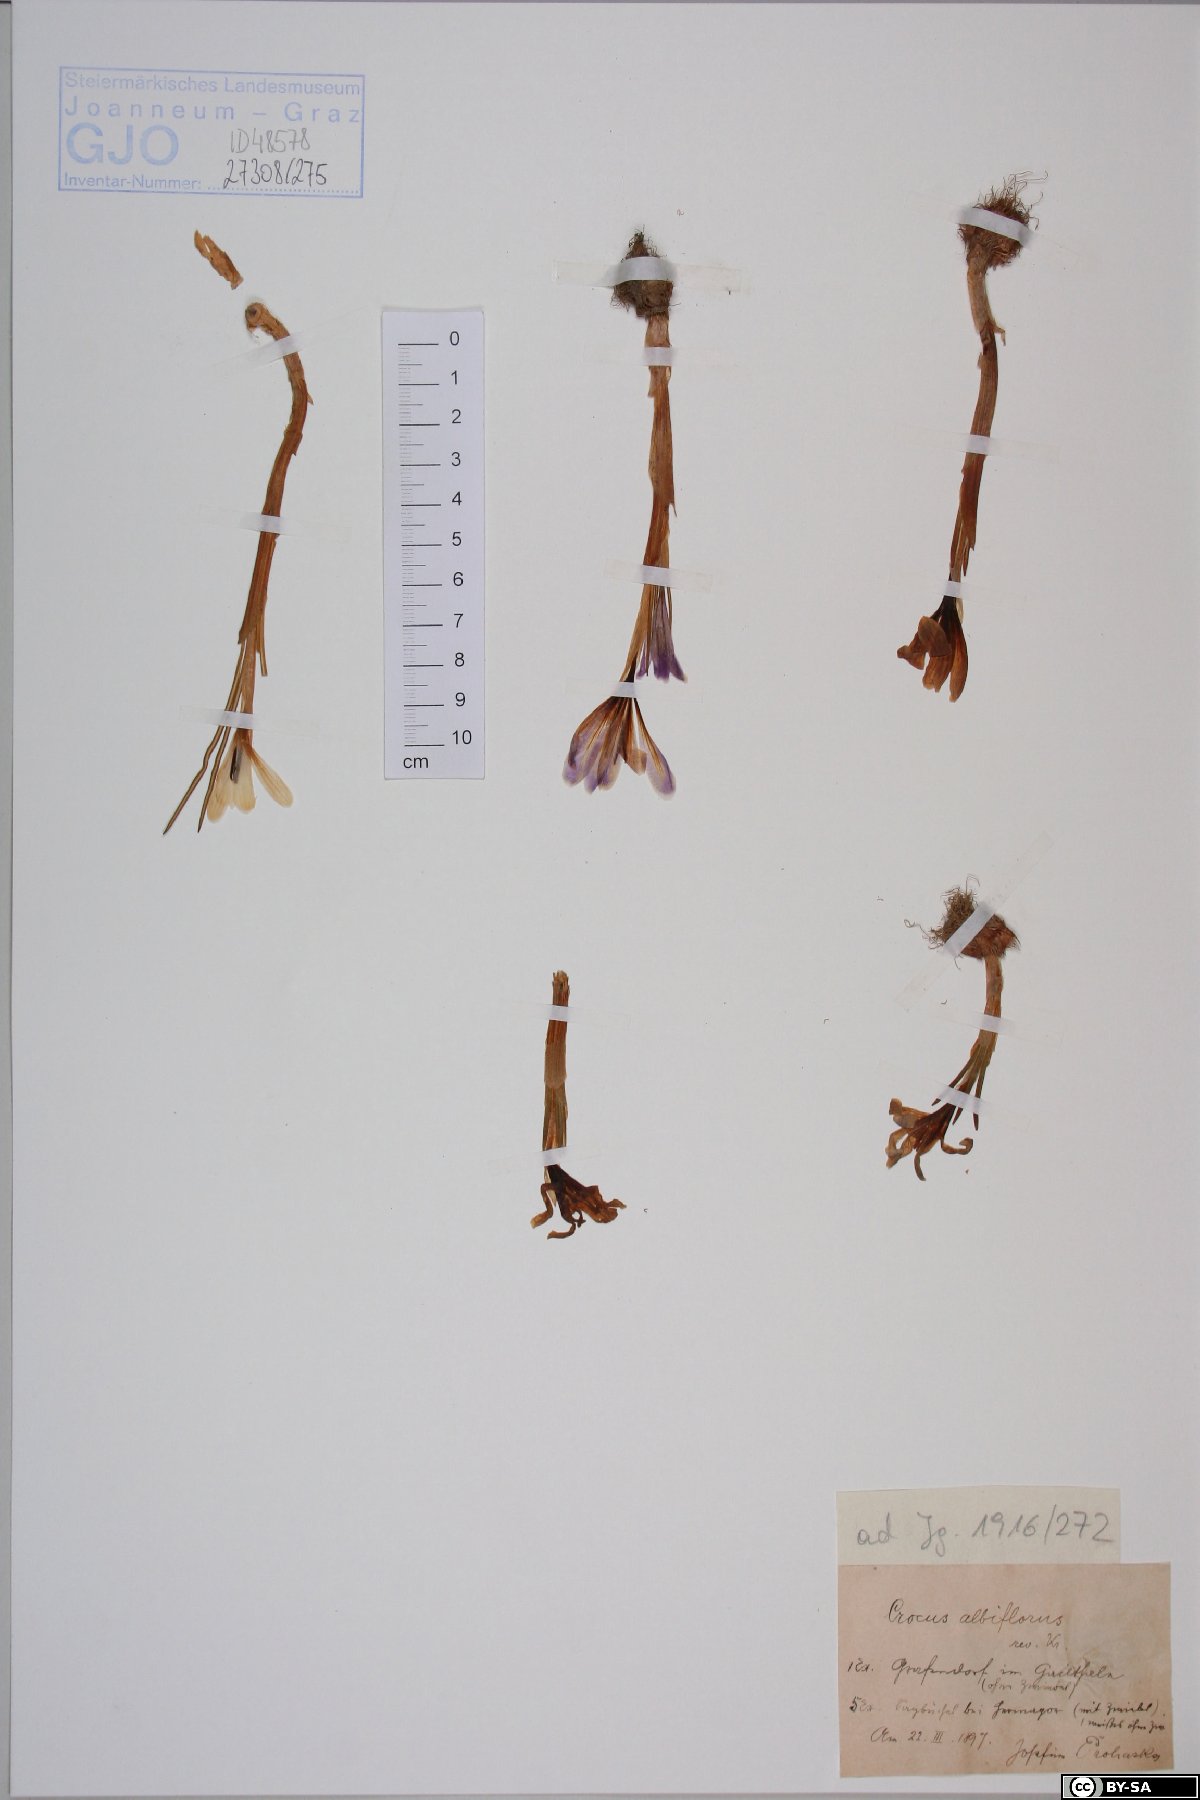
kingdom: Plantae
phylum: Tracheophyta
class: Liliopsida
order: Asparagales
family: Iridaceae
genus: Crocus
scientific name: Crocus vernus
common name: Spring crocus
